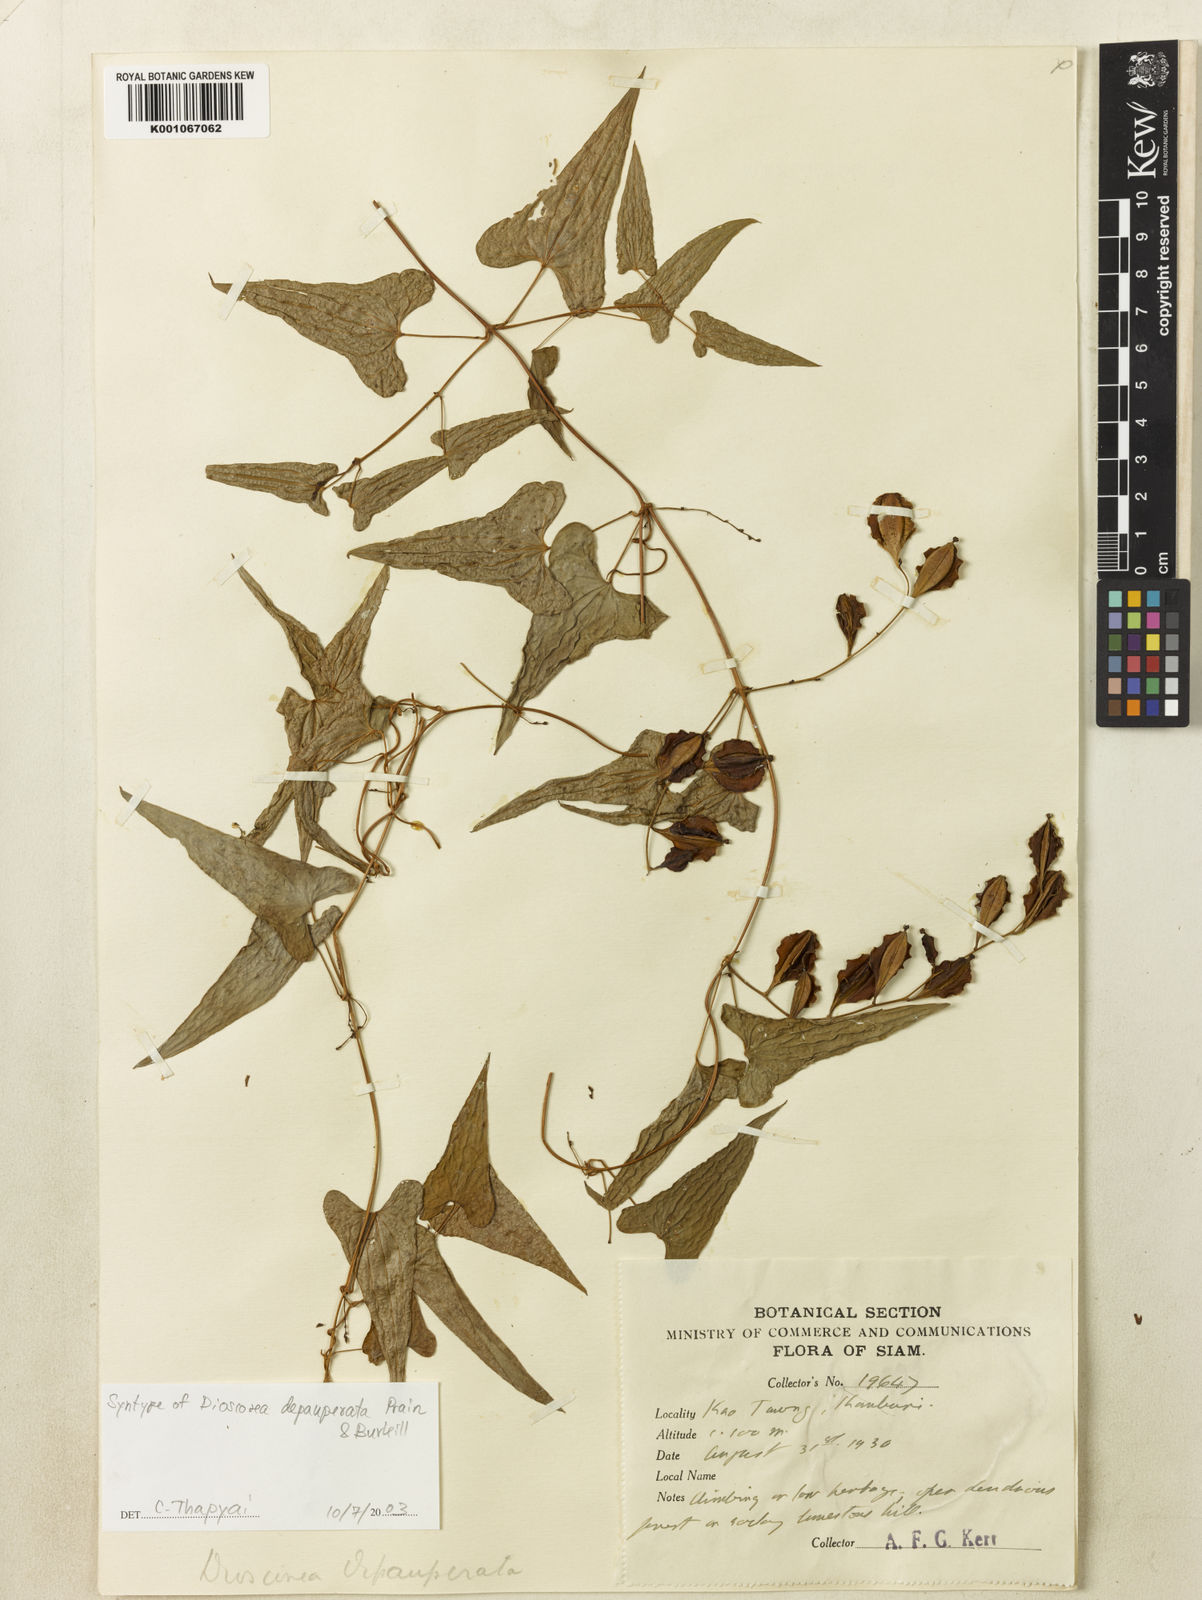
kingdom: Plantae
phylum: Tracheophyta
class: Liliopsida
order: Dioscoreales
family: Dioscoreaceae
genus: Dioscorea
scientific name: Dioscorea depauperata
